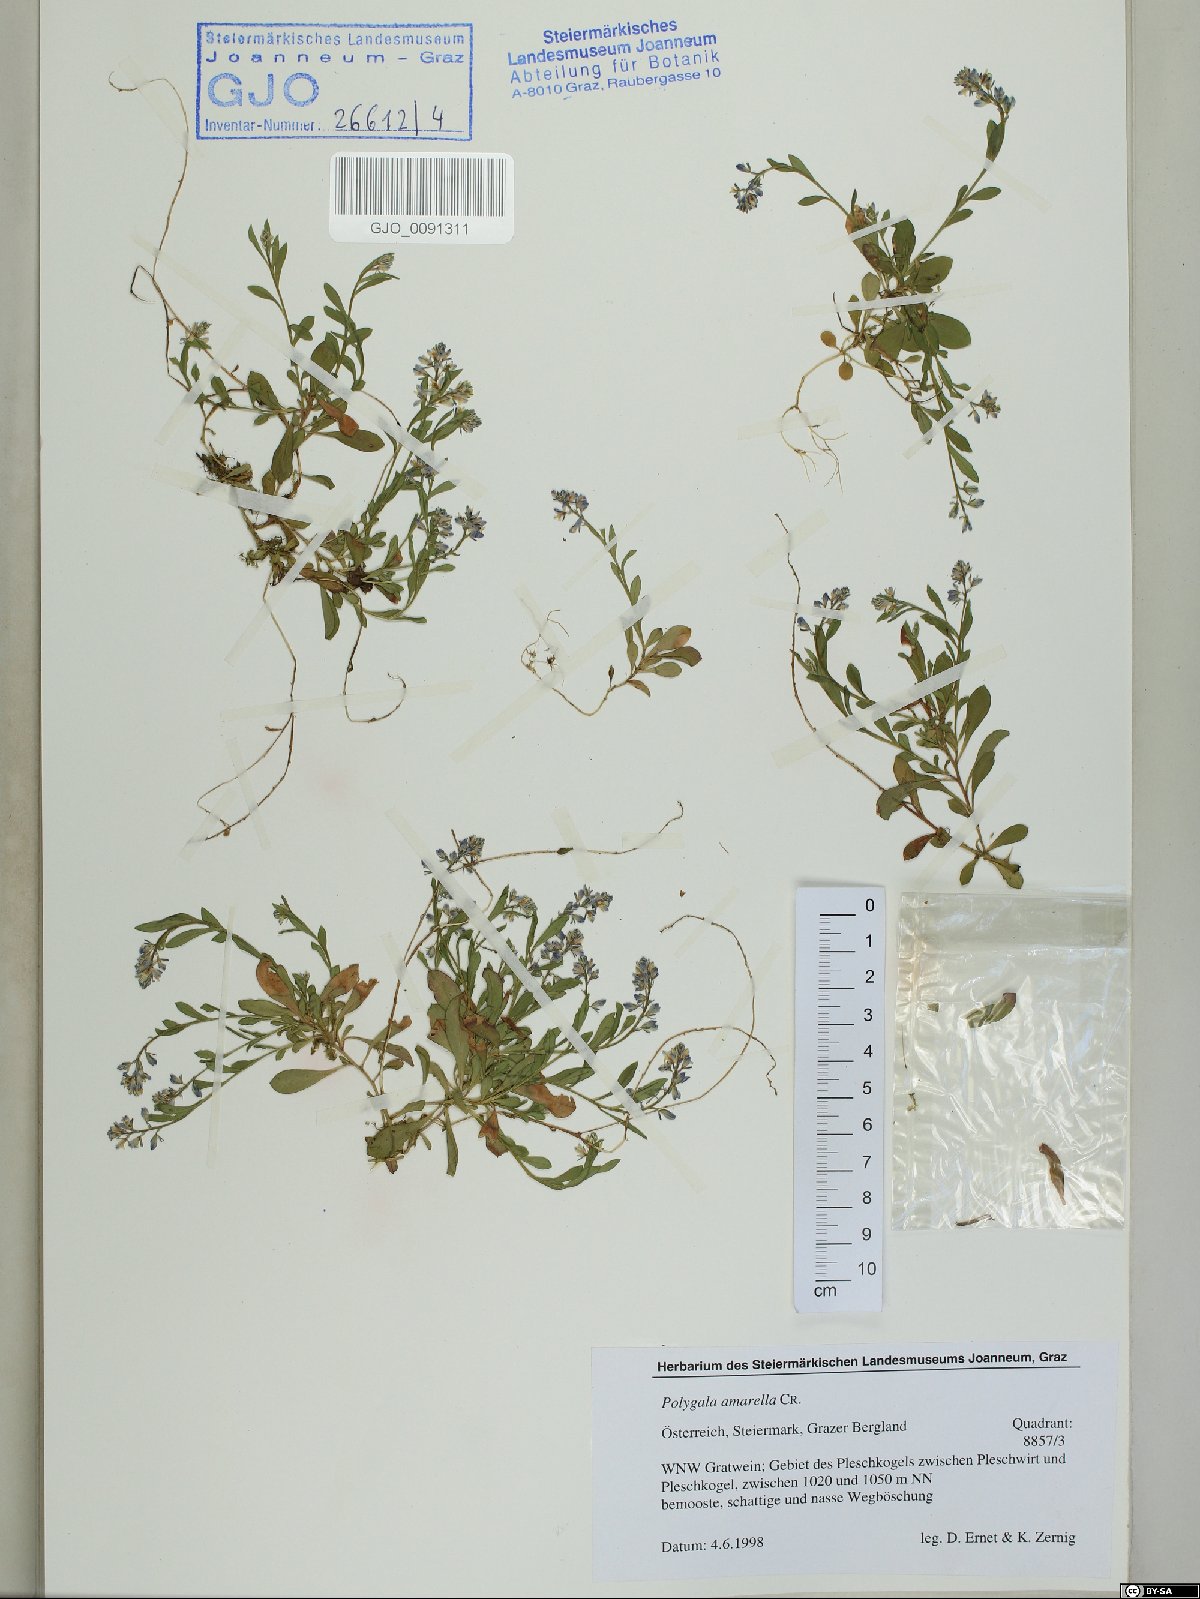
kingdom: Plantae
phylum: Tracheophyta
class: Magnoliopsida
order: Fabales
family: Polygalaceae
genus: Polygala
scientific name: Polygala amarella
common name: Dwarf milkwort
